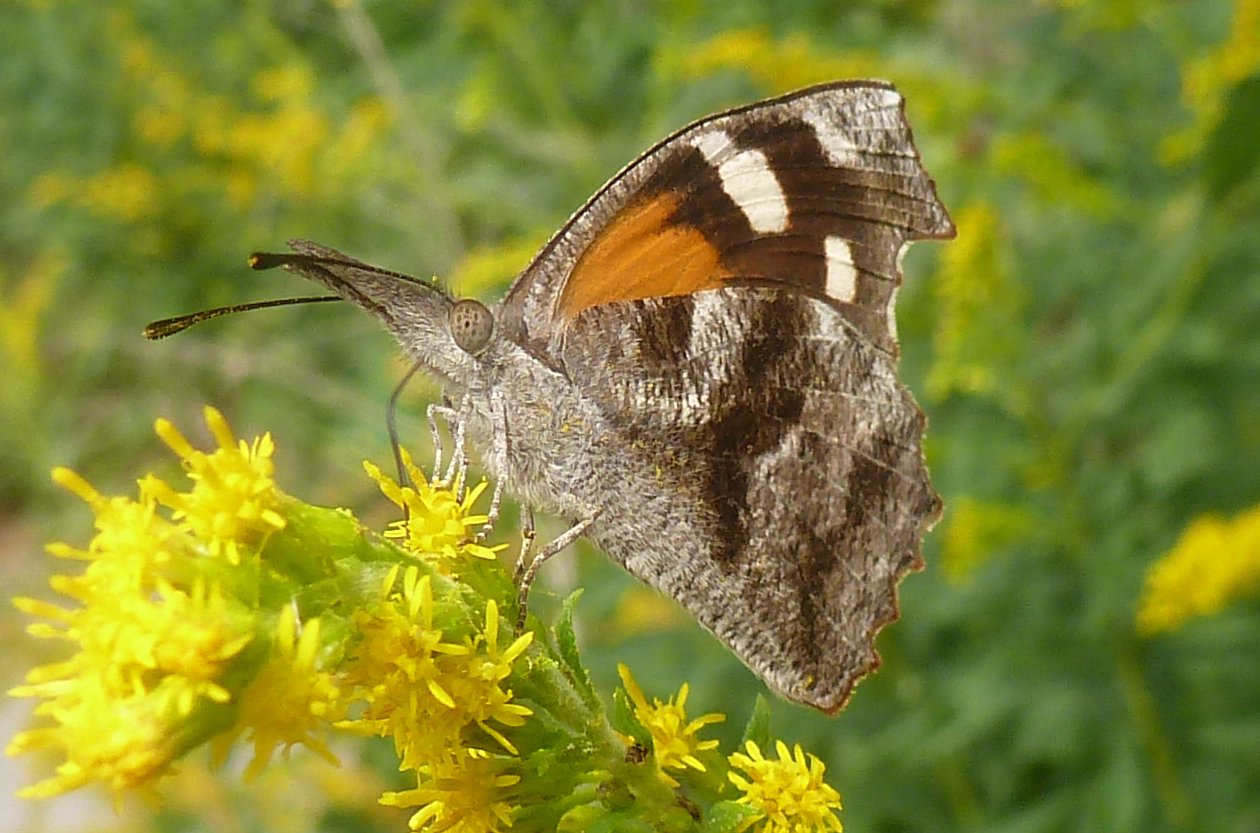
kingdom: Animalia
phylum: Arthropoda
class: Insecta
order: Lepidoptera
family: Nymphalidae
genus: Libytheana
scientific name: Libytheana carinenta
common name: American Snout
